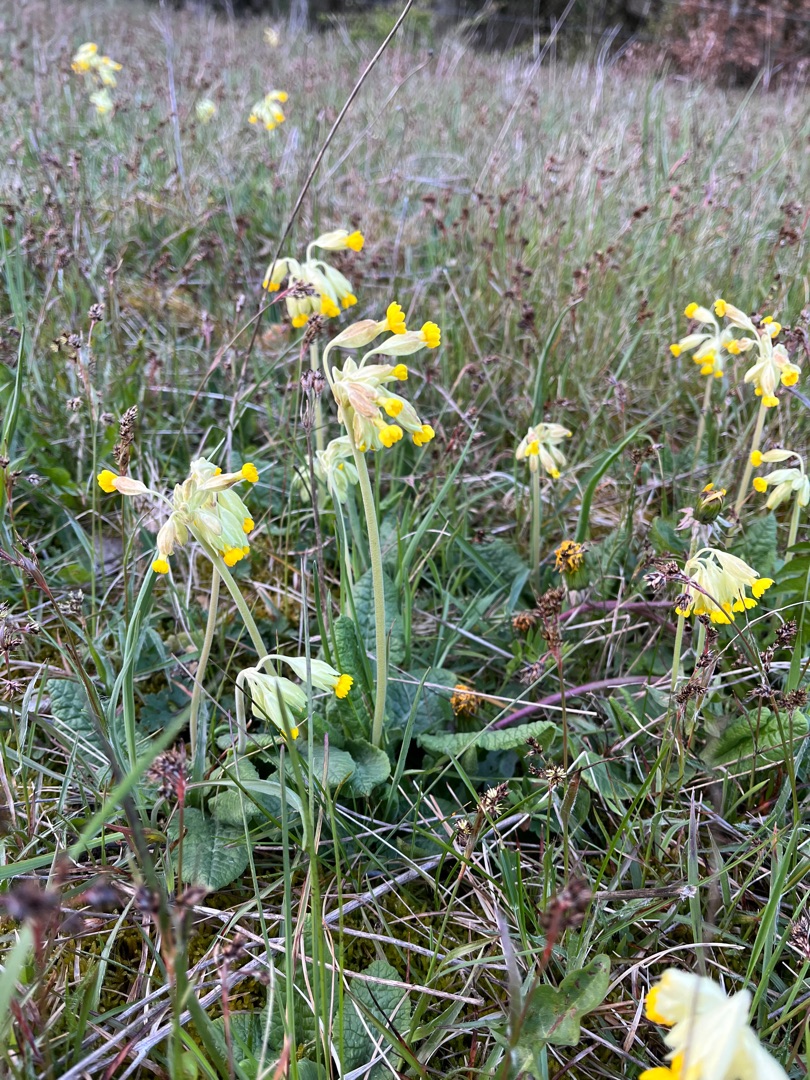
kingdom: Plantae
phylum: Tracheophyta
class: Magnoliopsida
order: Ericales
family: Primulaceae
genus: Primula
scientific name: Primula veris
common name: Hulkravet kodriver
